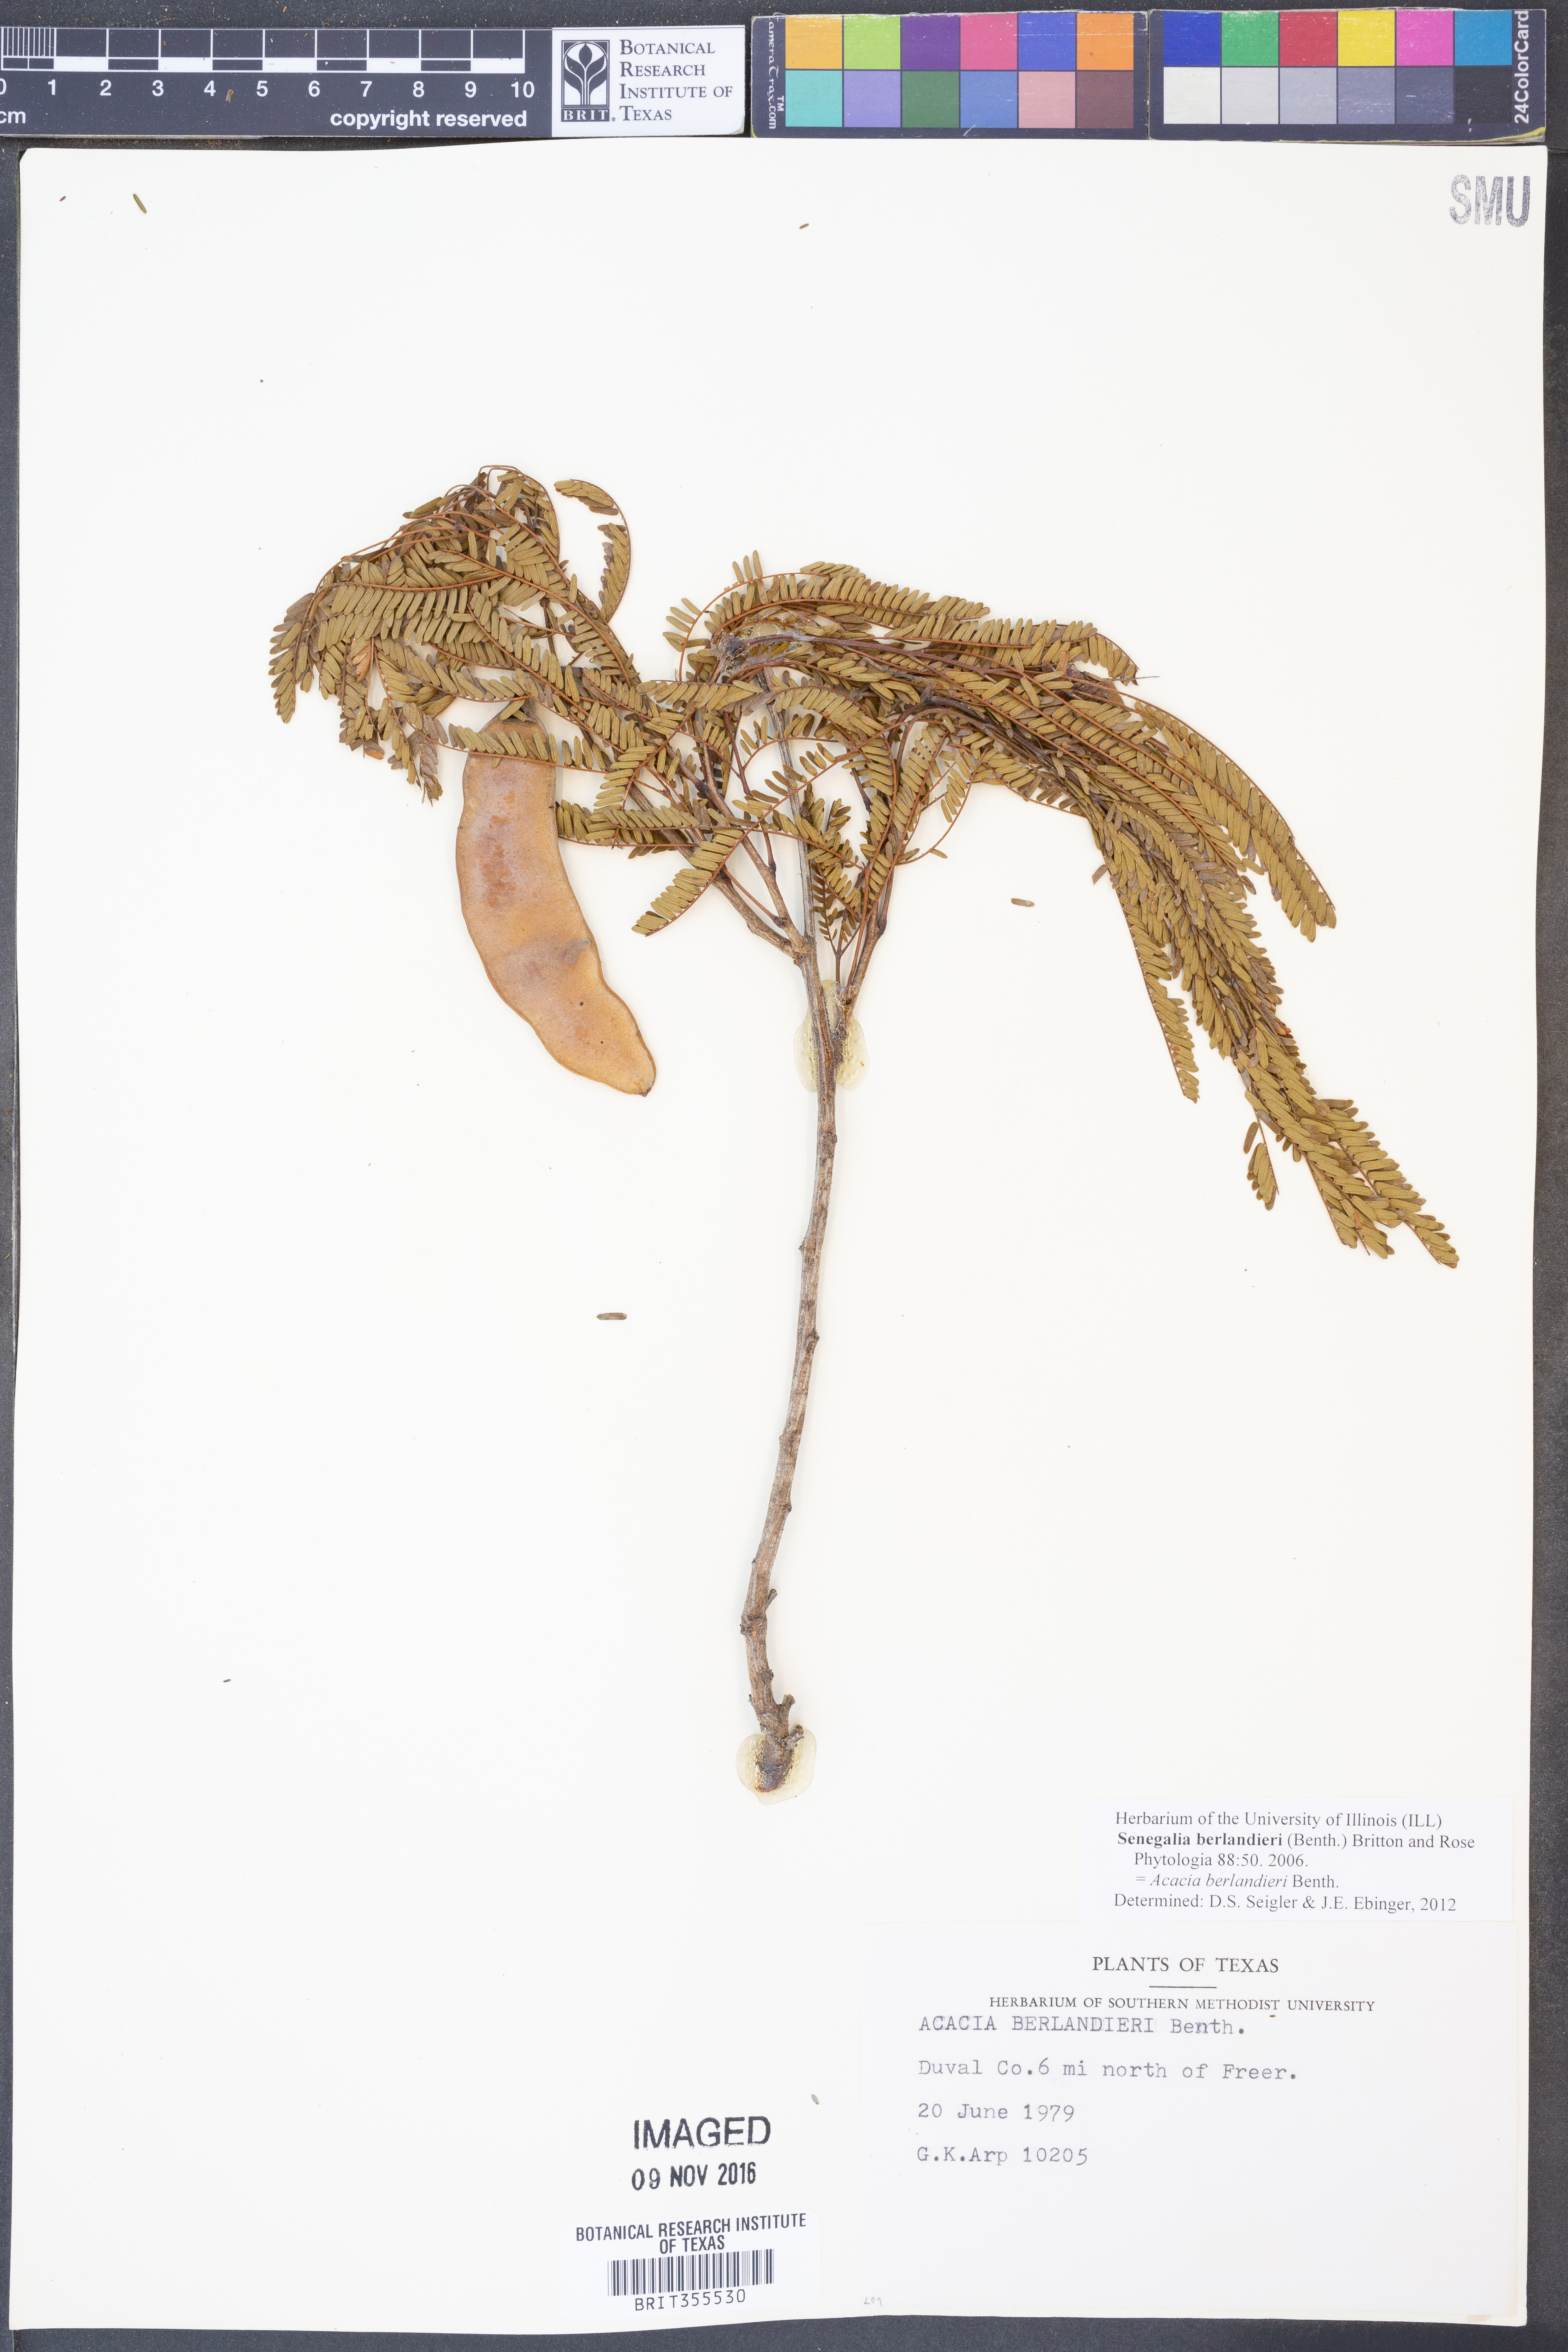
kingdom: Plantae
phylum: Tracheophyta
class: Magnoliopsida
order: Fabales
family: Fabaceae
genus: Senegalia
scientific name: Senegalia berlandieri
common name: Berlandier acacia
